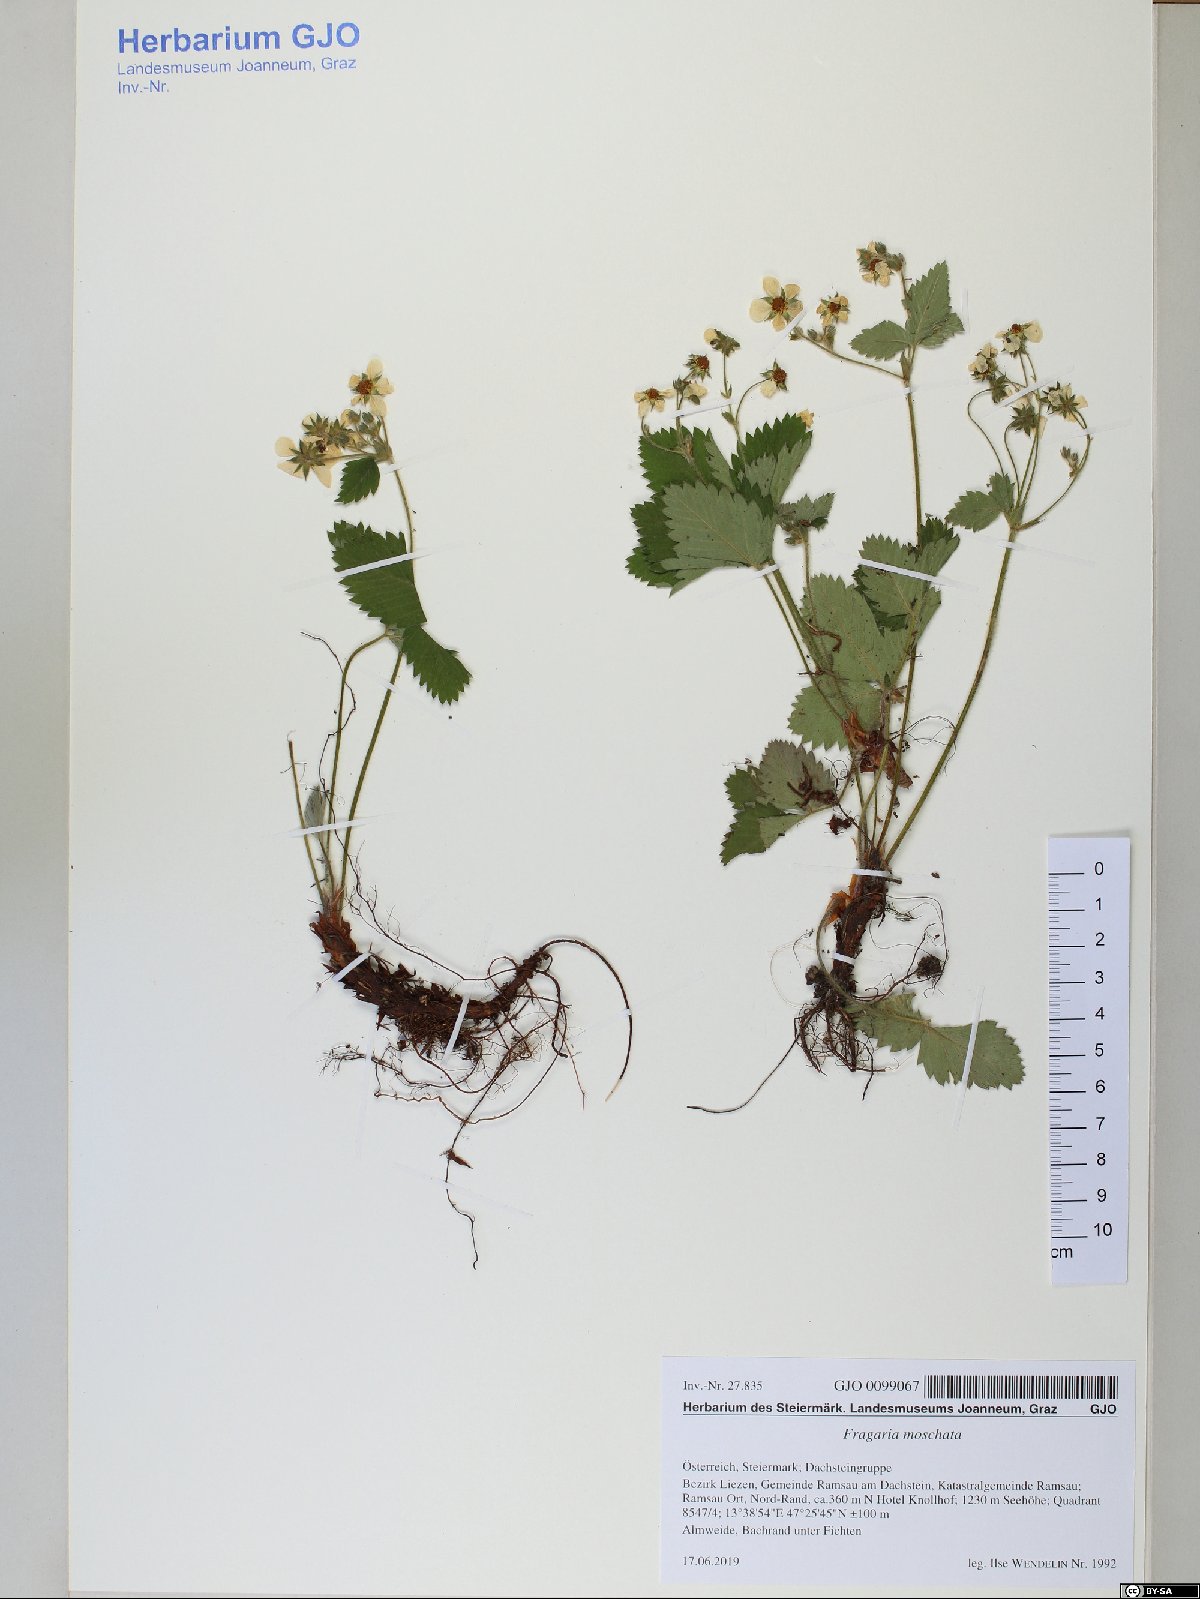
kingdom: Plantae
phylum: Tracheophyta
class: Magnoliopsida
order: Rosales
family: Rosaceae
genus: Fragaria
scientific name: Fragaria moschata
